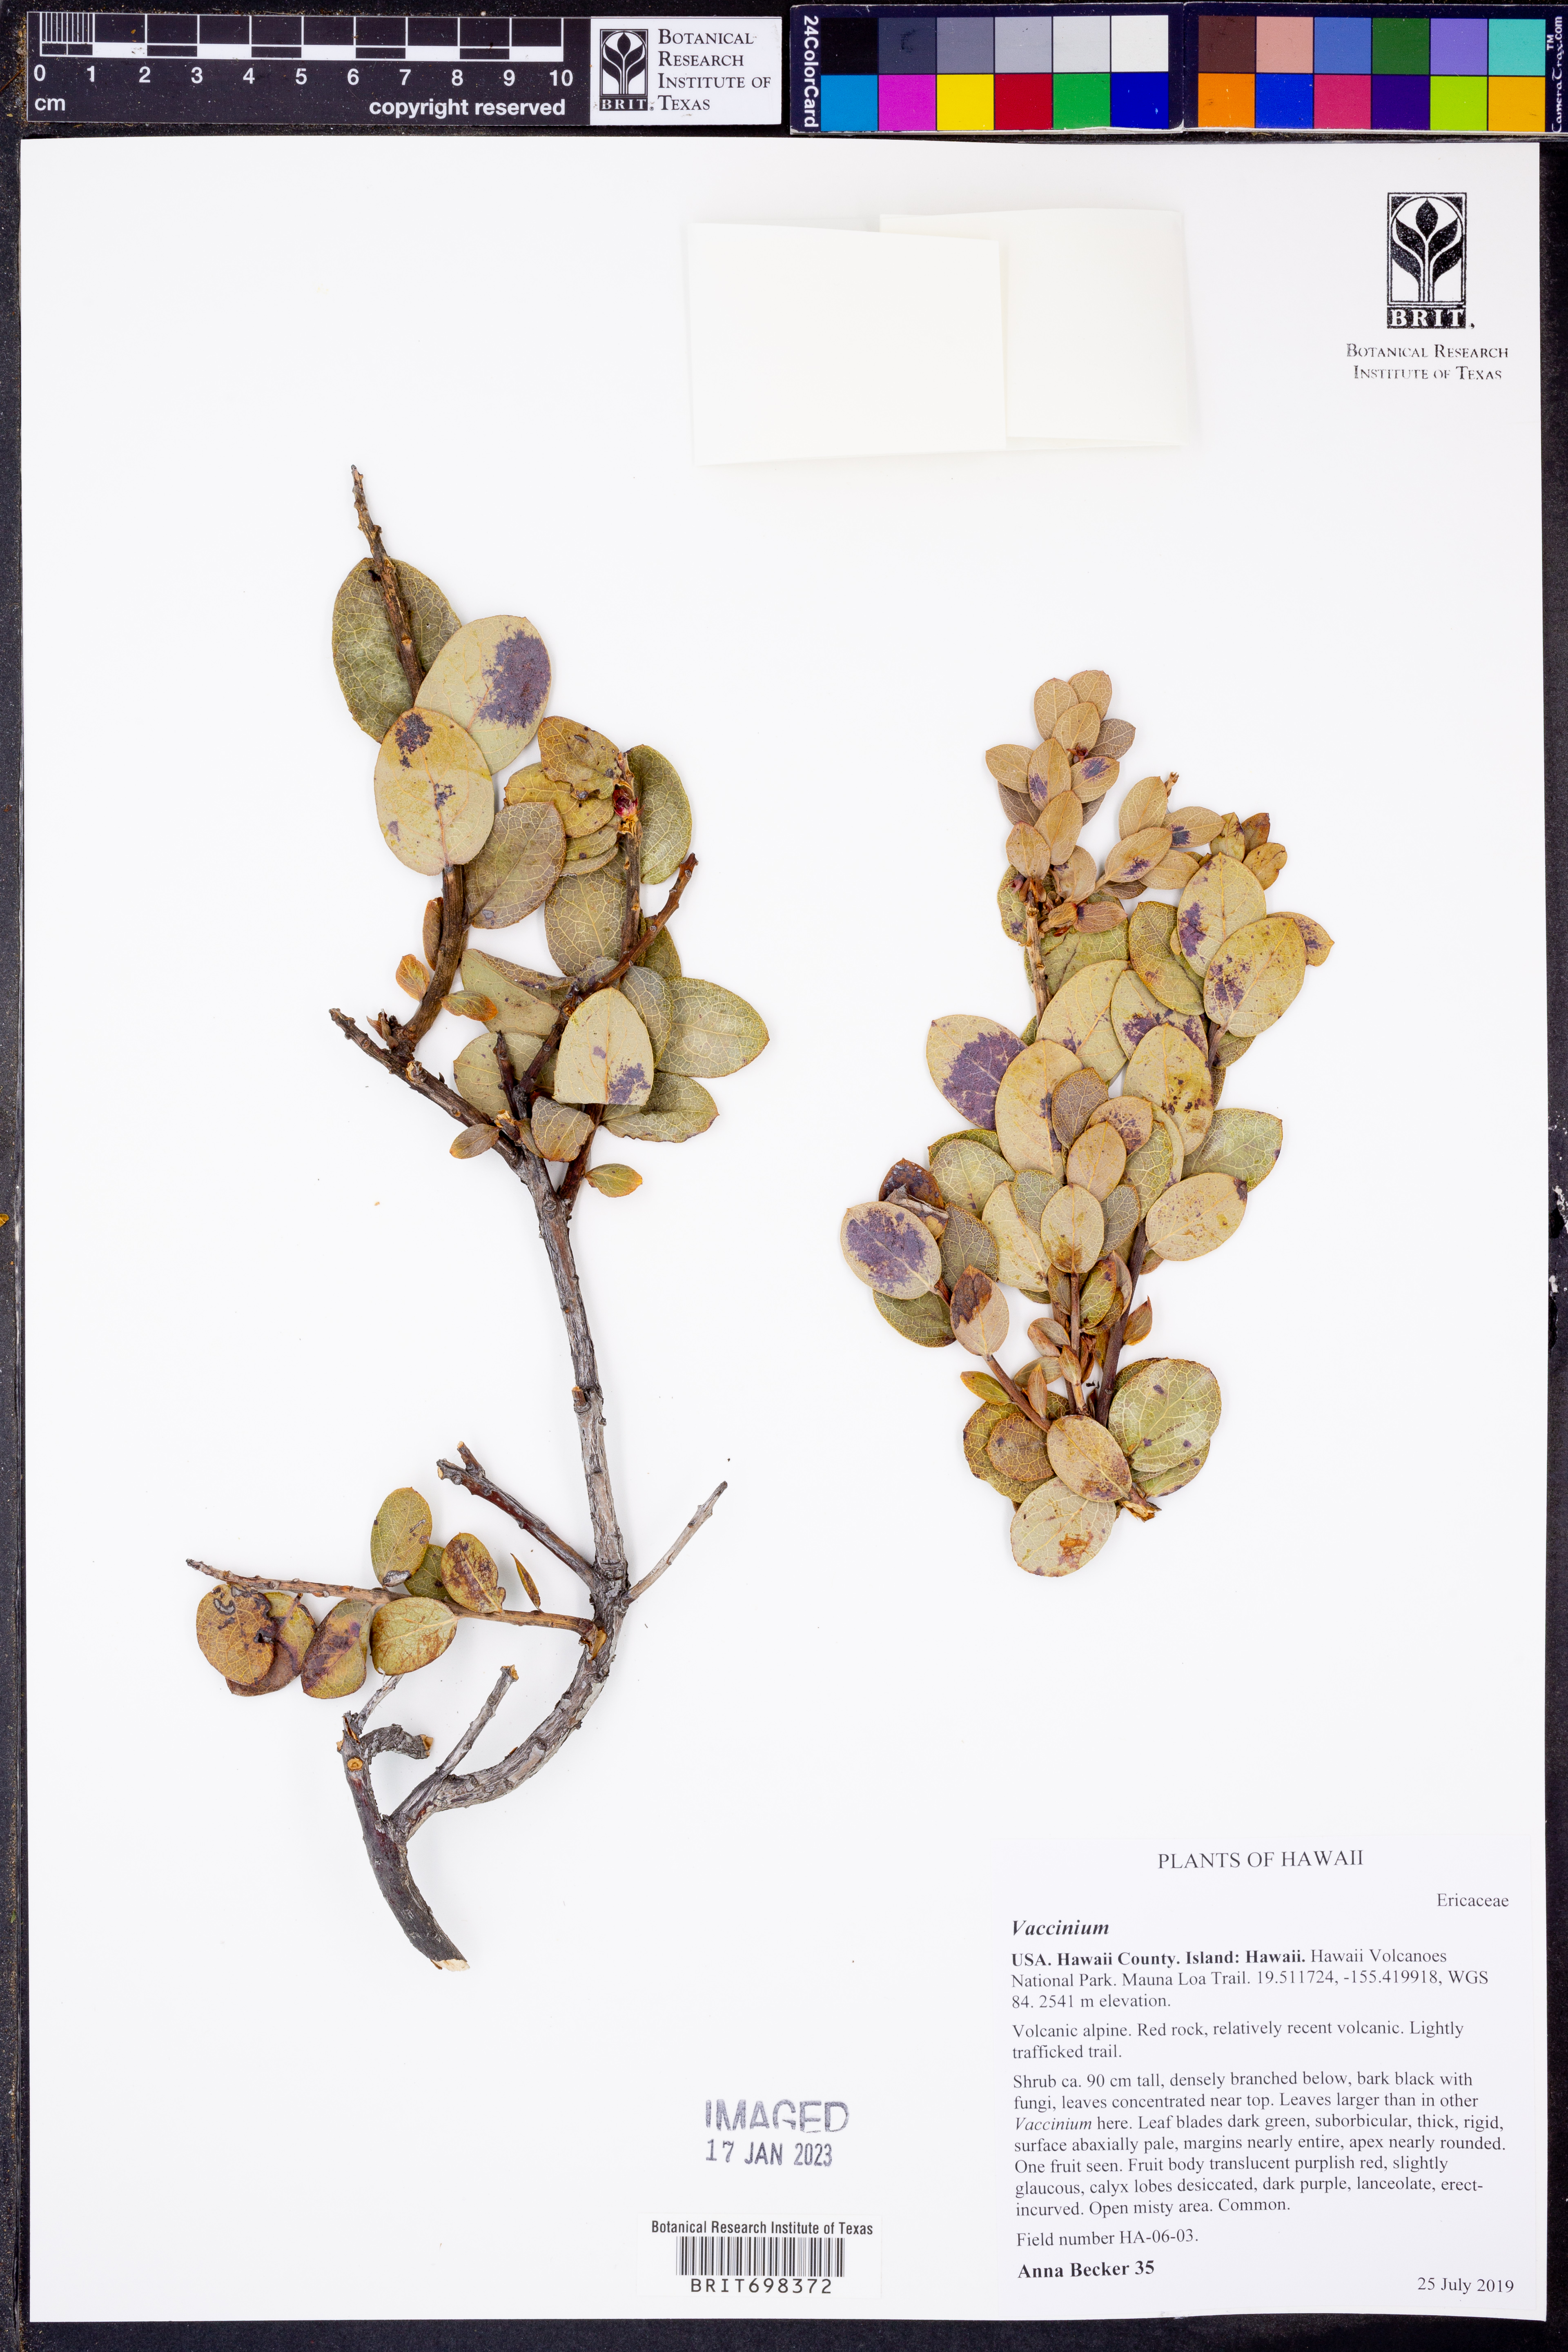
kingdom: Plantae
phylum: Tracheophyta
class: Magnoliopsida
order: Ericales
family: Ericaceae
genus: Vaccinium
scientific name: Vaccinium
